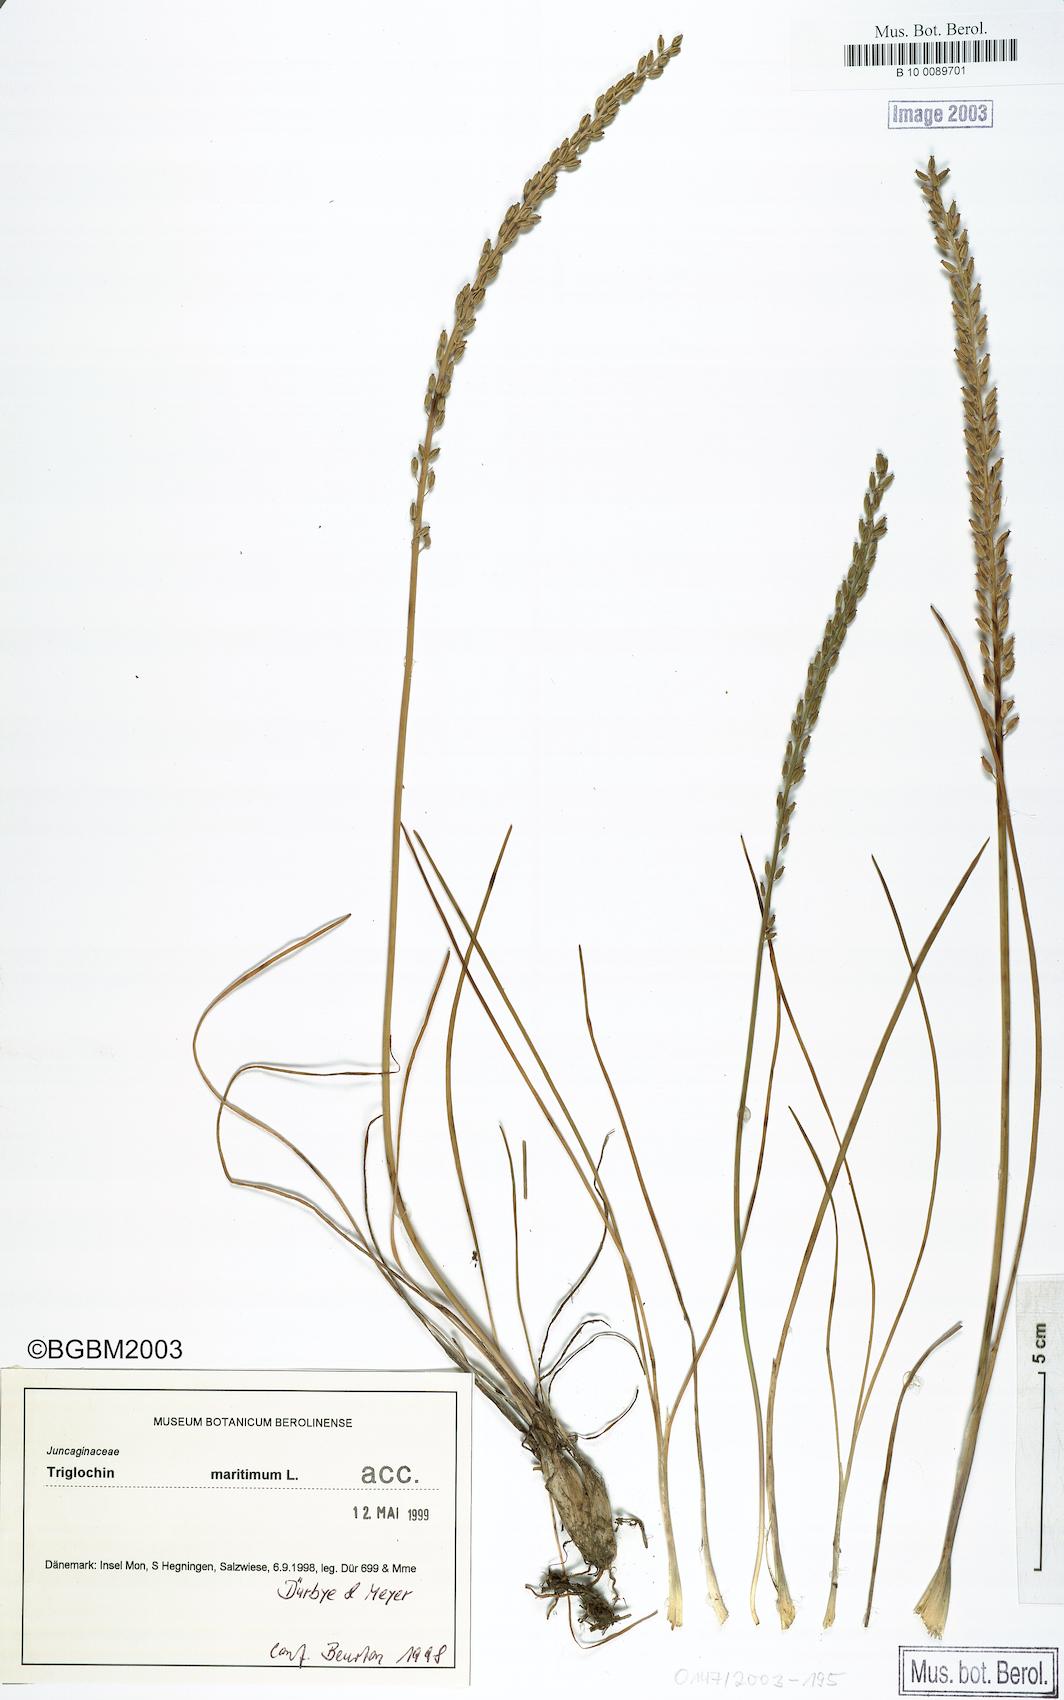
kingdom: Plantae
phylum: Tracheophyta
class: Liliopsida
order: Alismatales
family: Juncaginaceae
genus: Triglochin
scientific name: Triglochin maritima
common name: Sea arrowgrass
